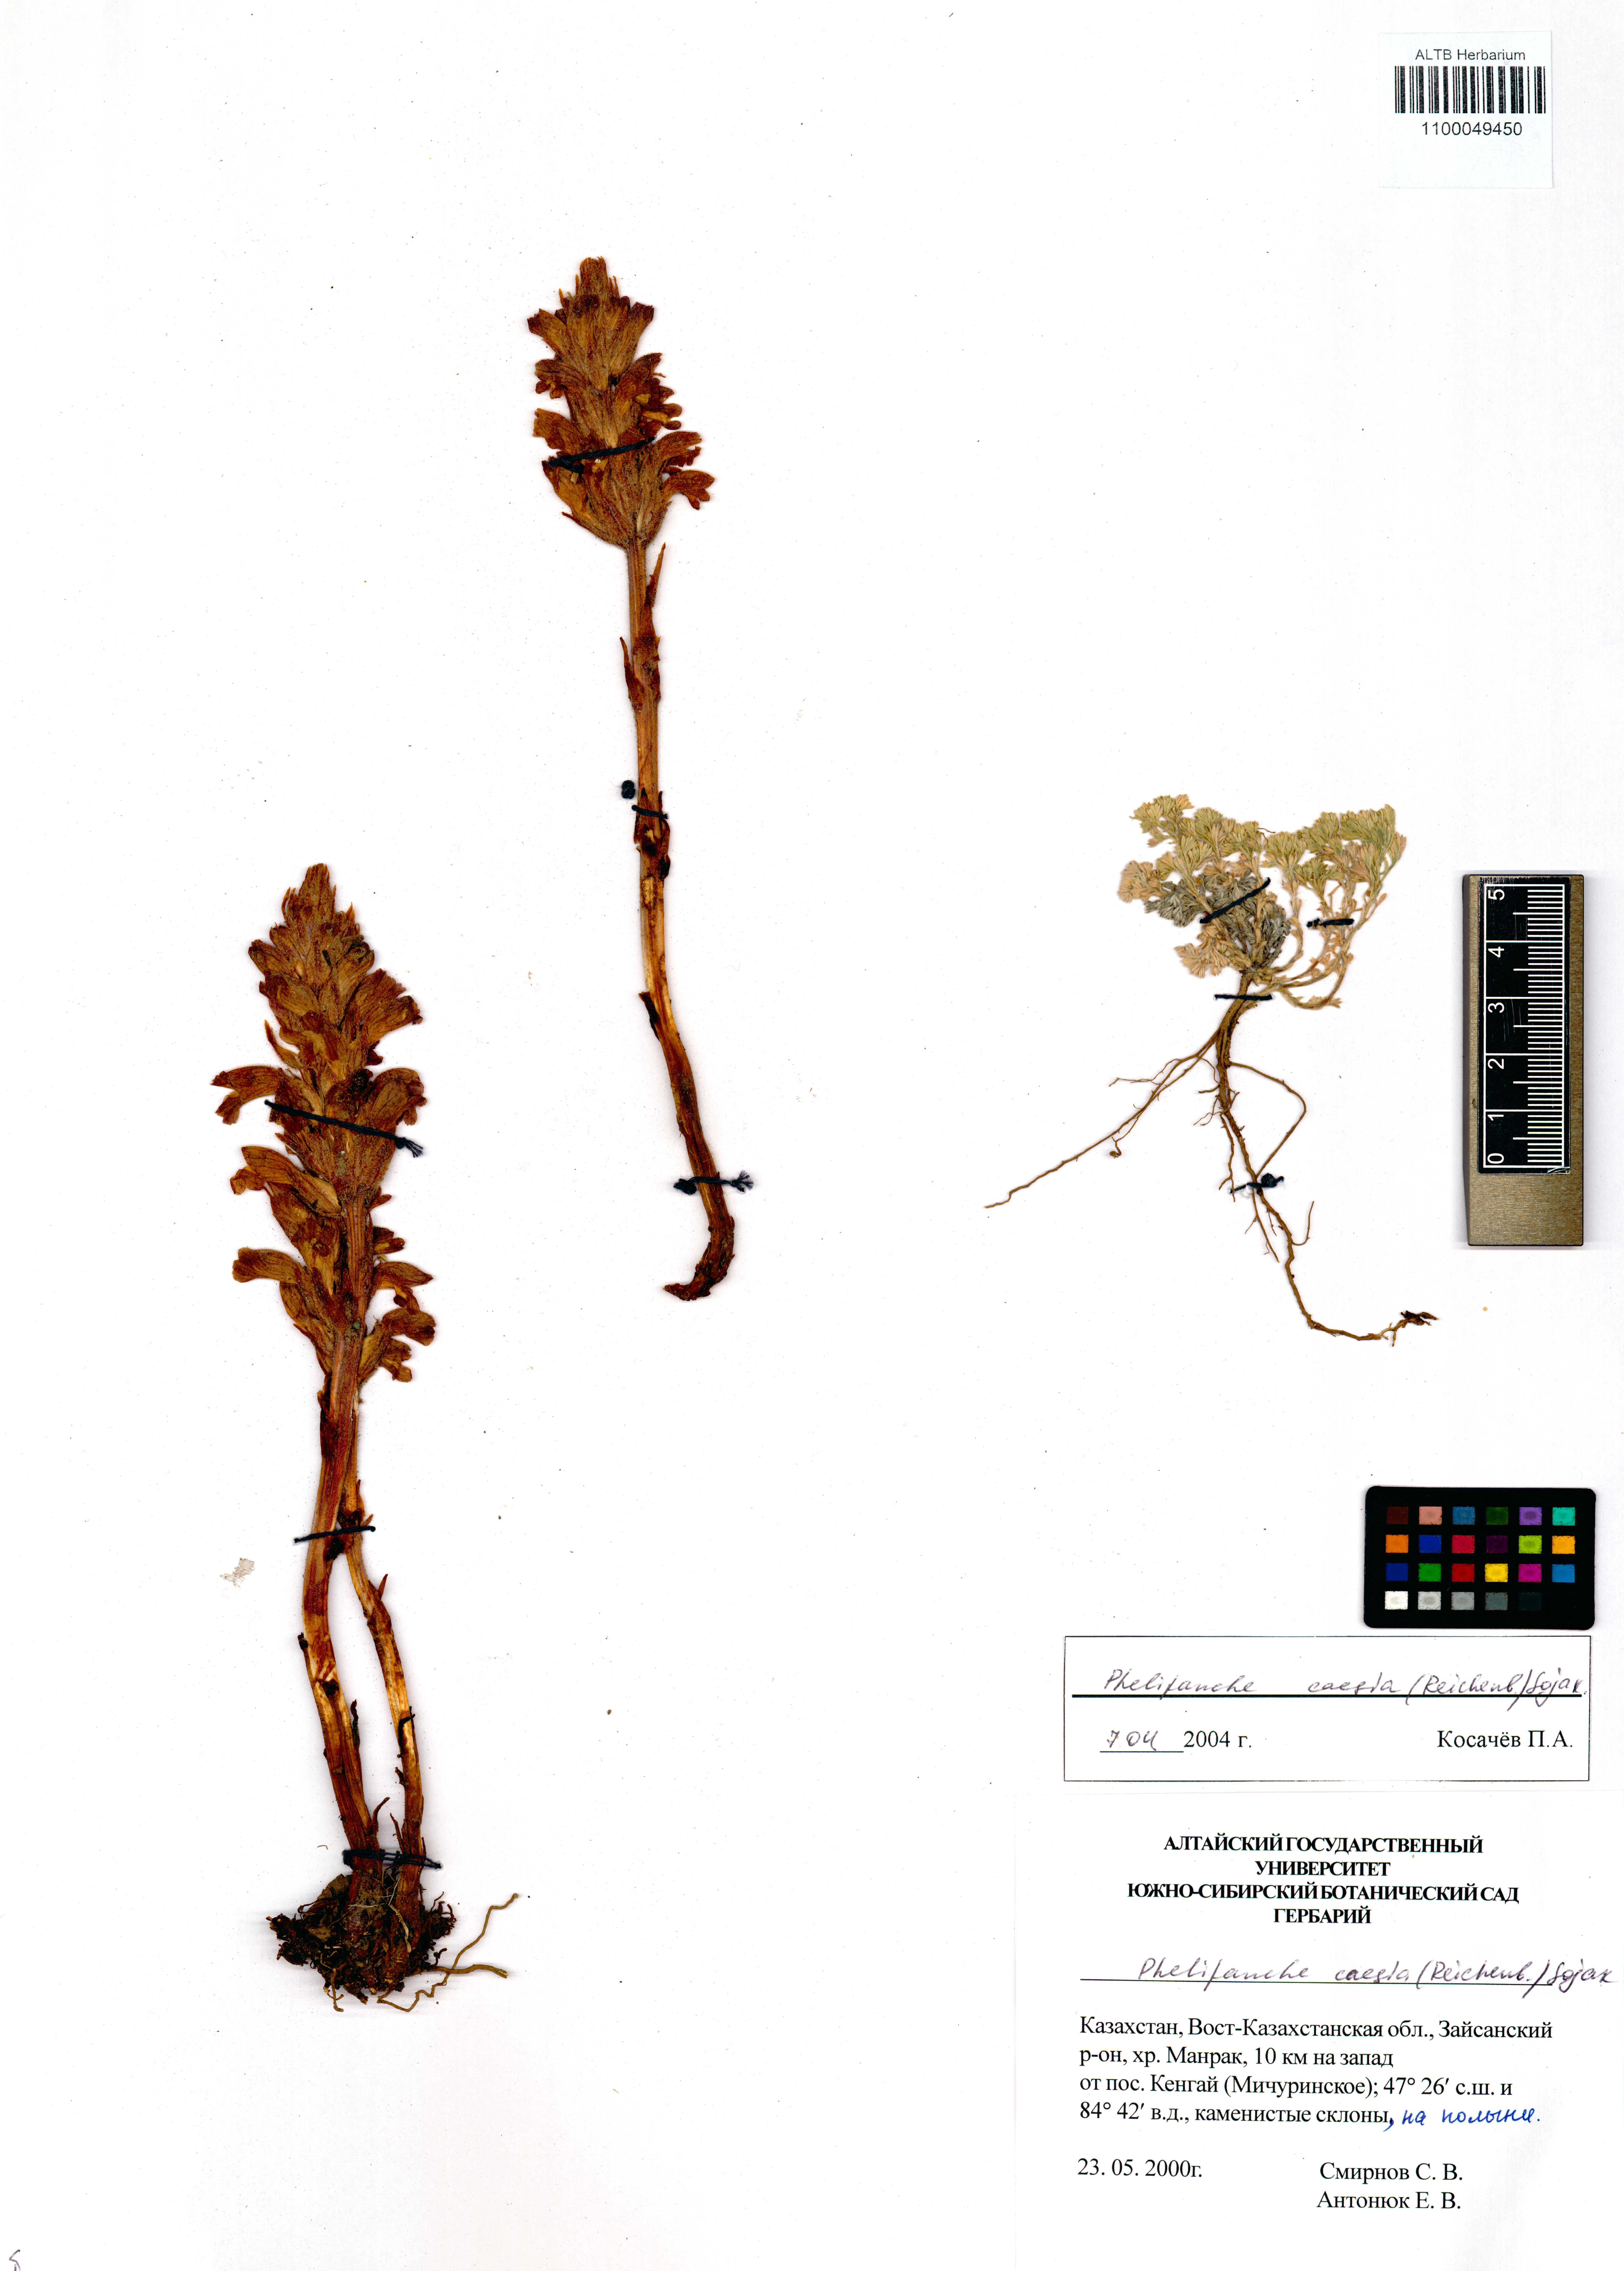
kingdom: Plantae
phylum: Tracheophyta
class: Magnoliopsida
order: Lamiales
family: Orobanchaceae
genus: Phelipanche
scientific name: Phelipanche caesia
